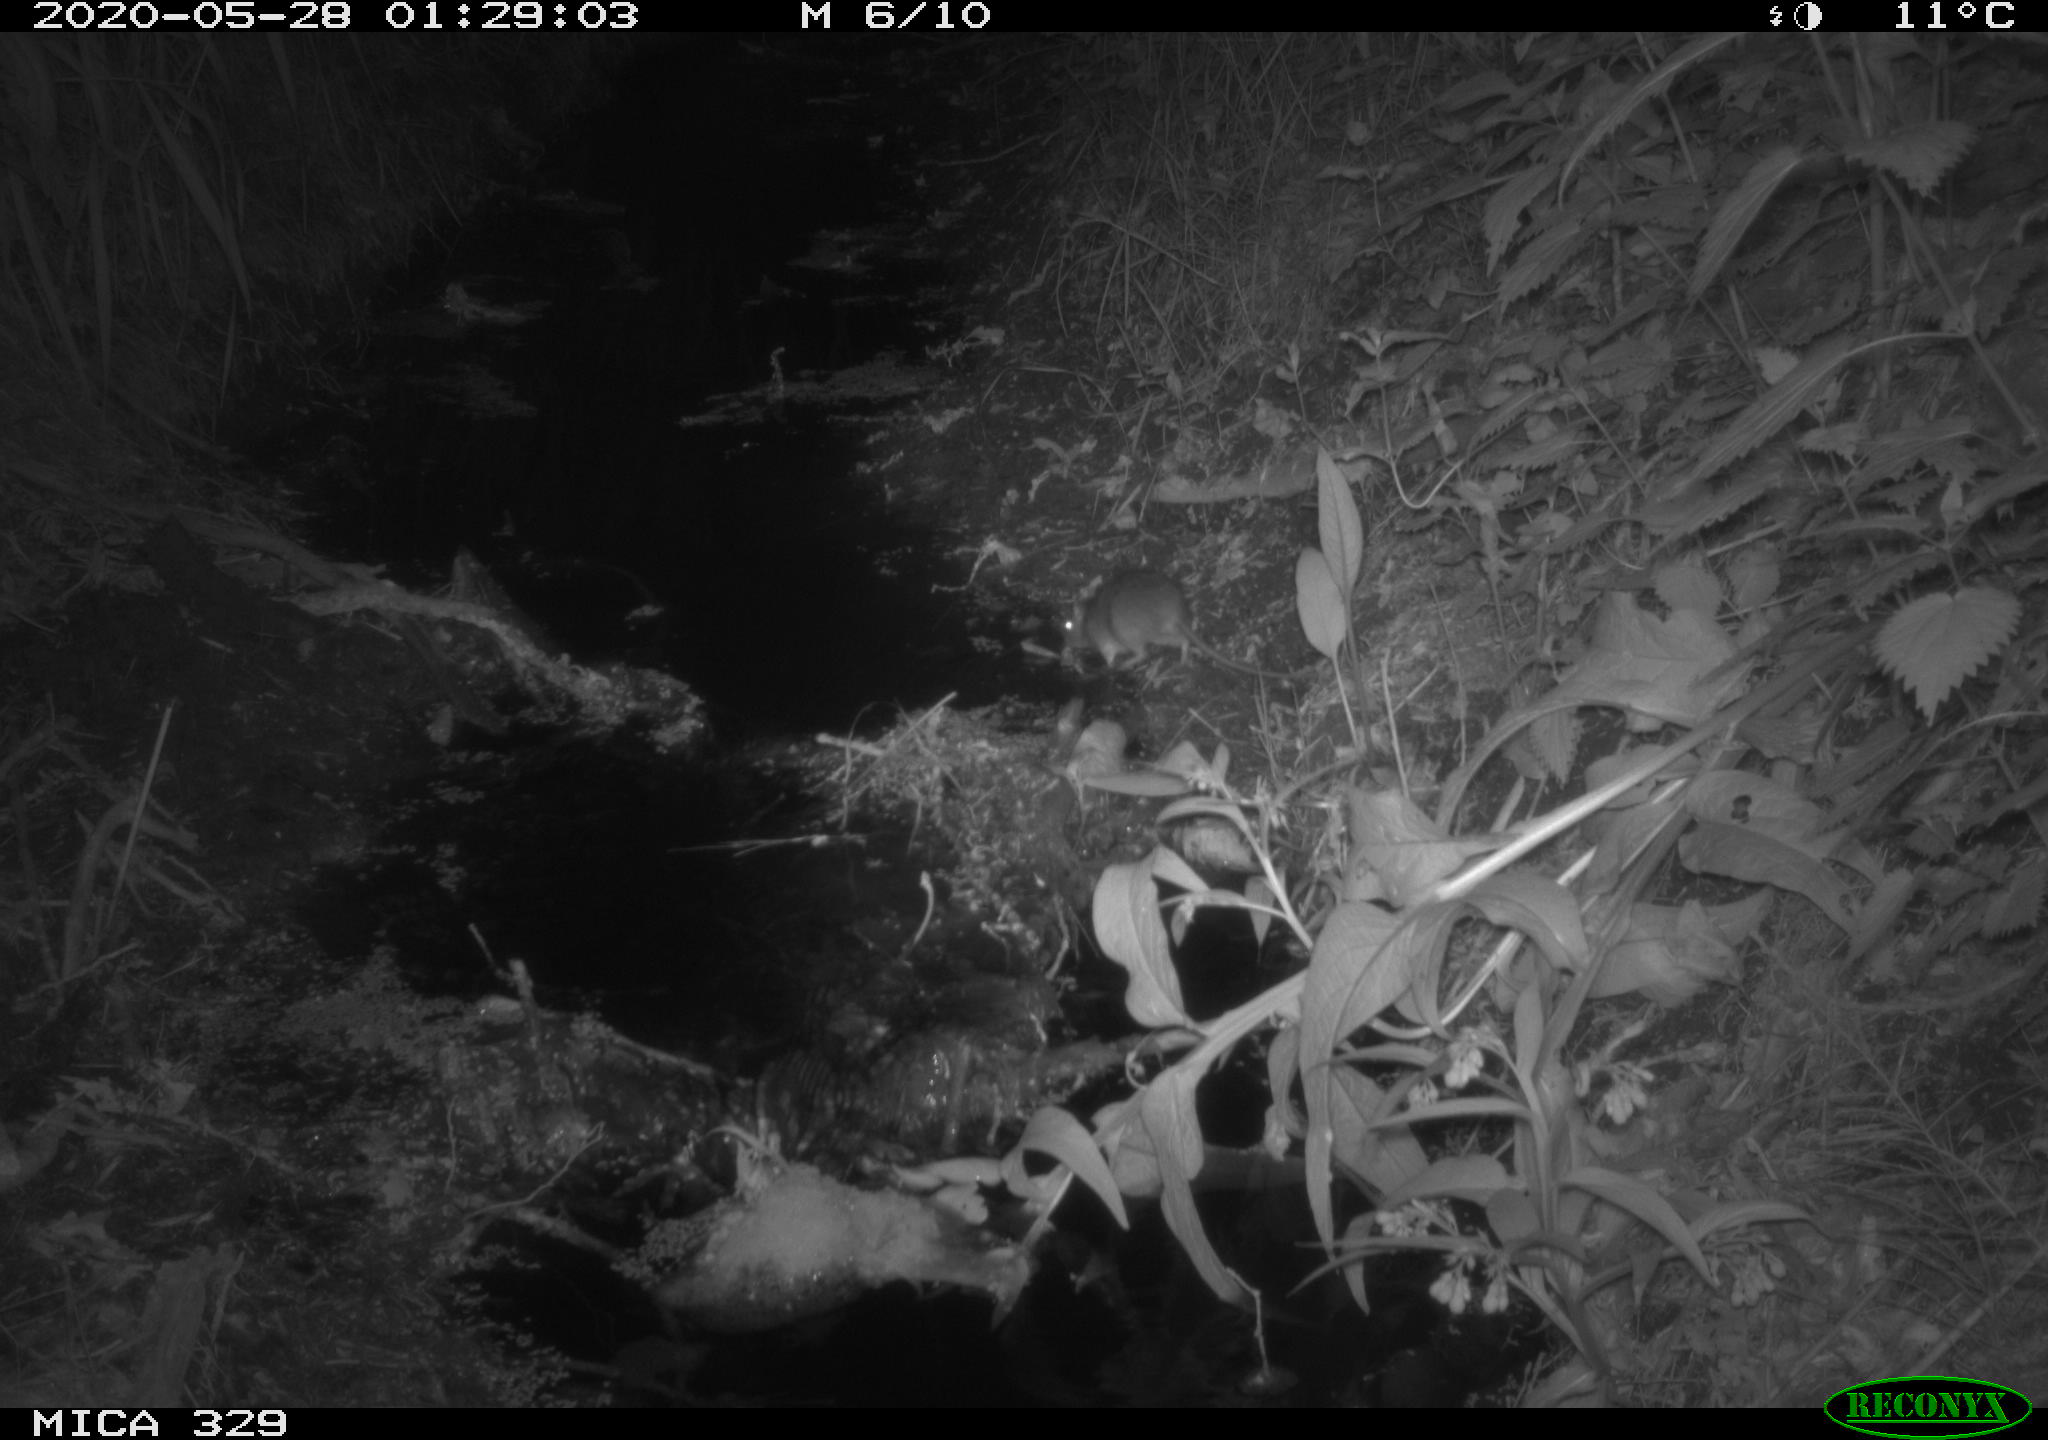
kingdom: Animalia
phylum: Chordata
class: Mammalia
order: Rodentia
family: Muridae
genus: Rattus
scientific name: Rattus norvegicus
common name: Brown rat
